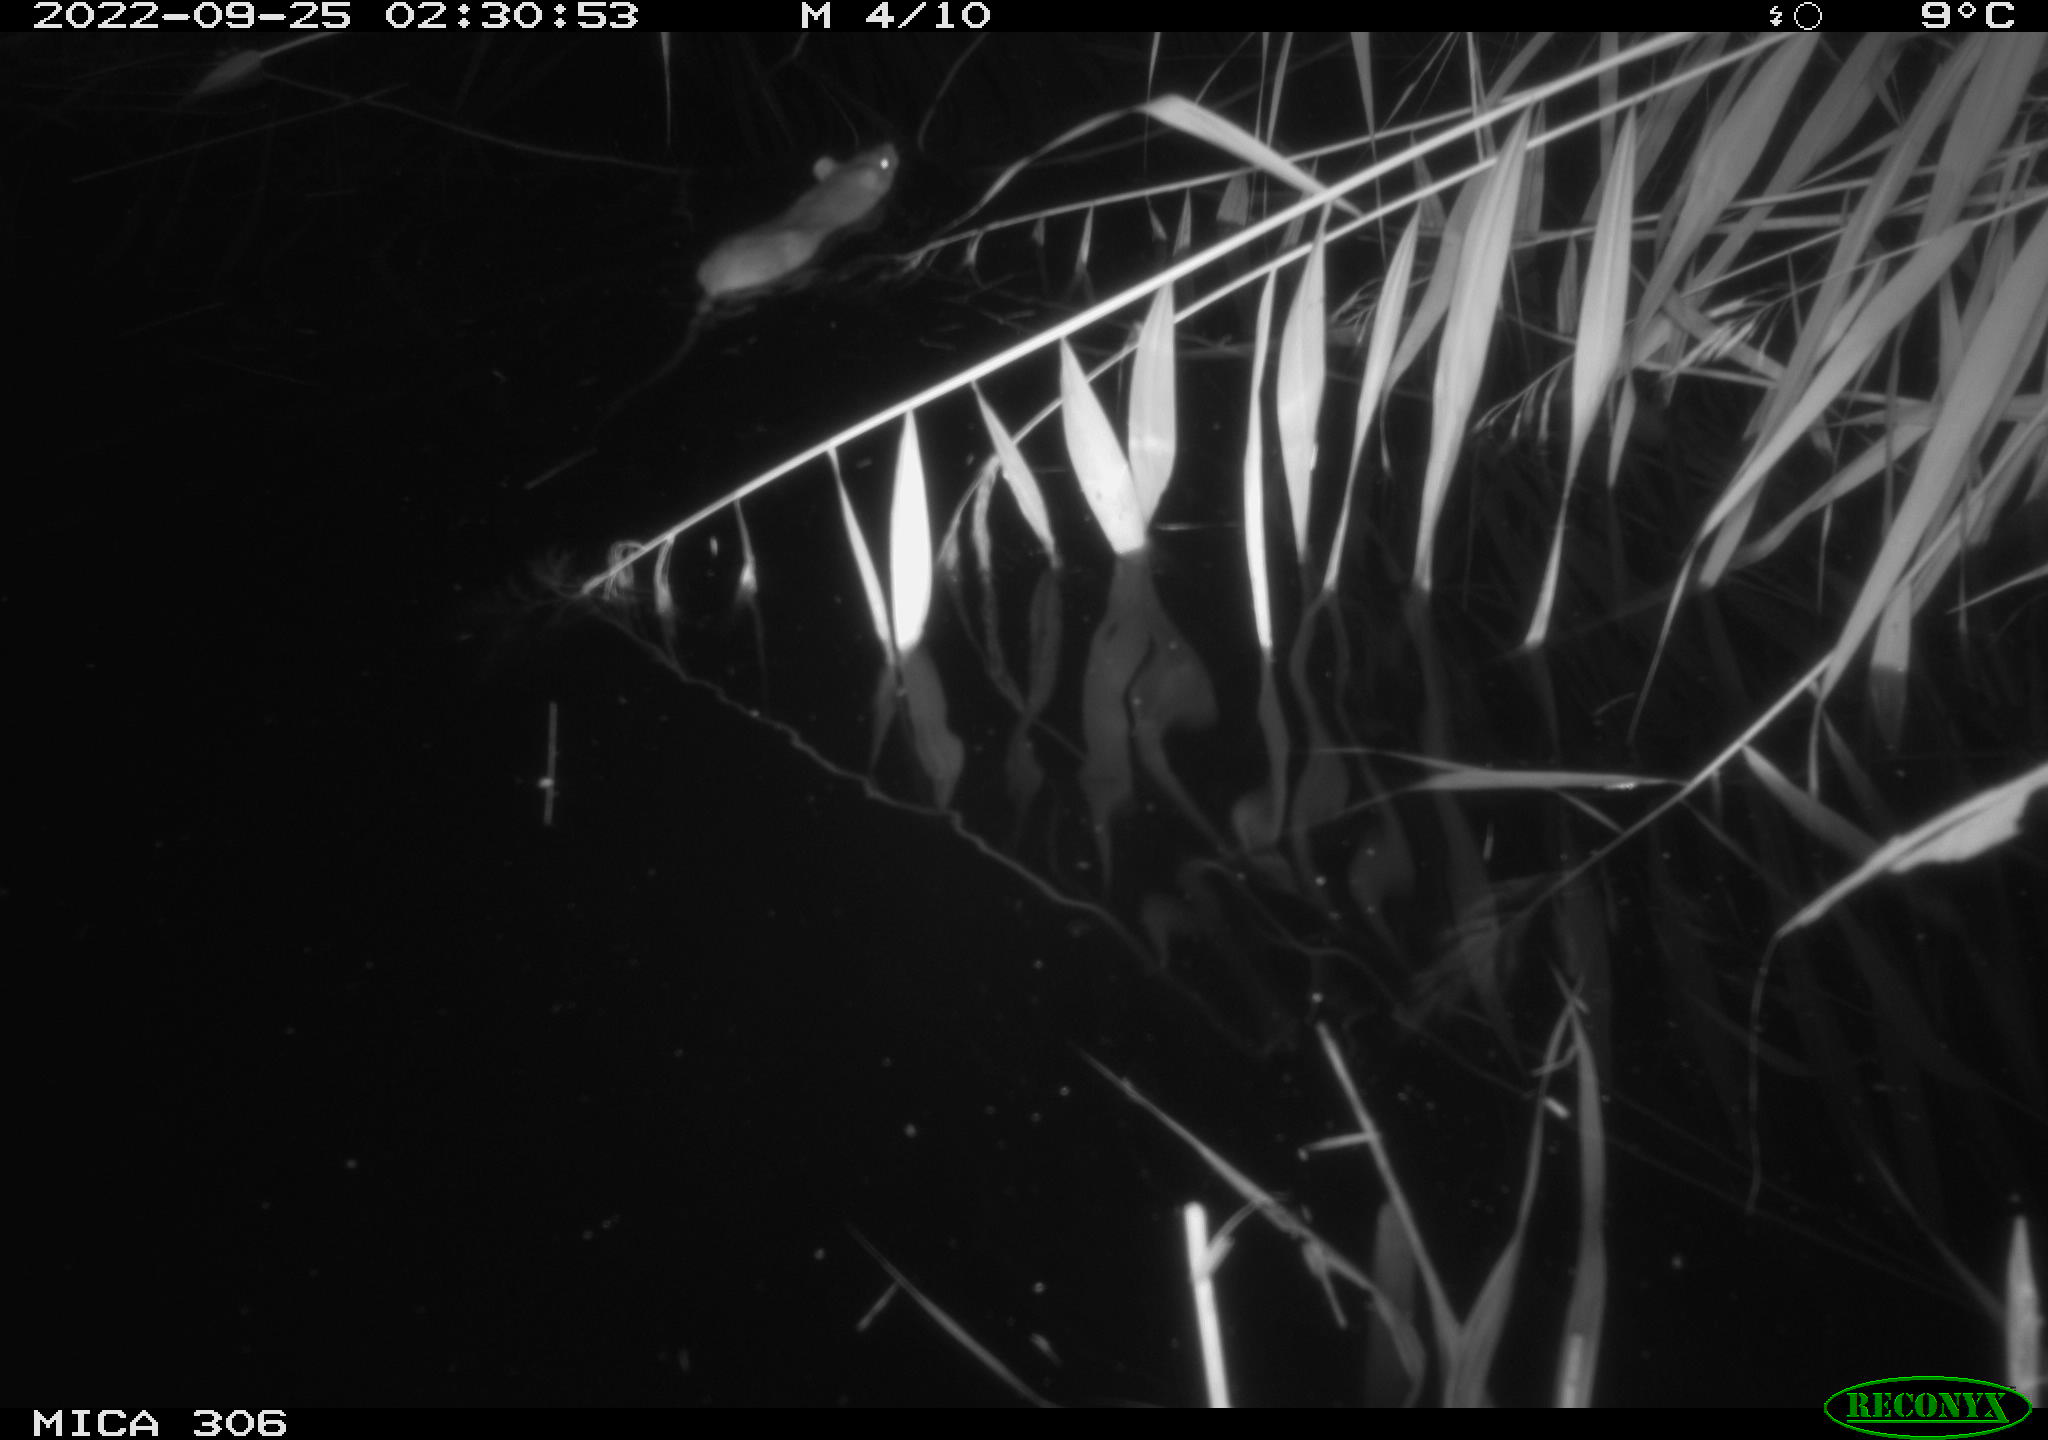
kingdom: Animalia
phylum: Chordata
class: Mammalia
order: Rodentia
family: Muridae
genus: Rattus
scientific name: Rattus norvegicus
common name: Brown rat
